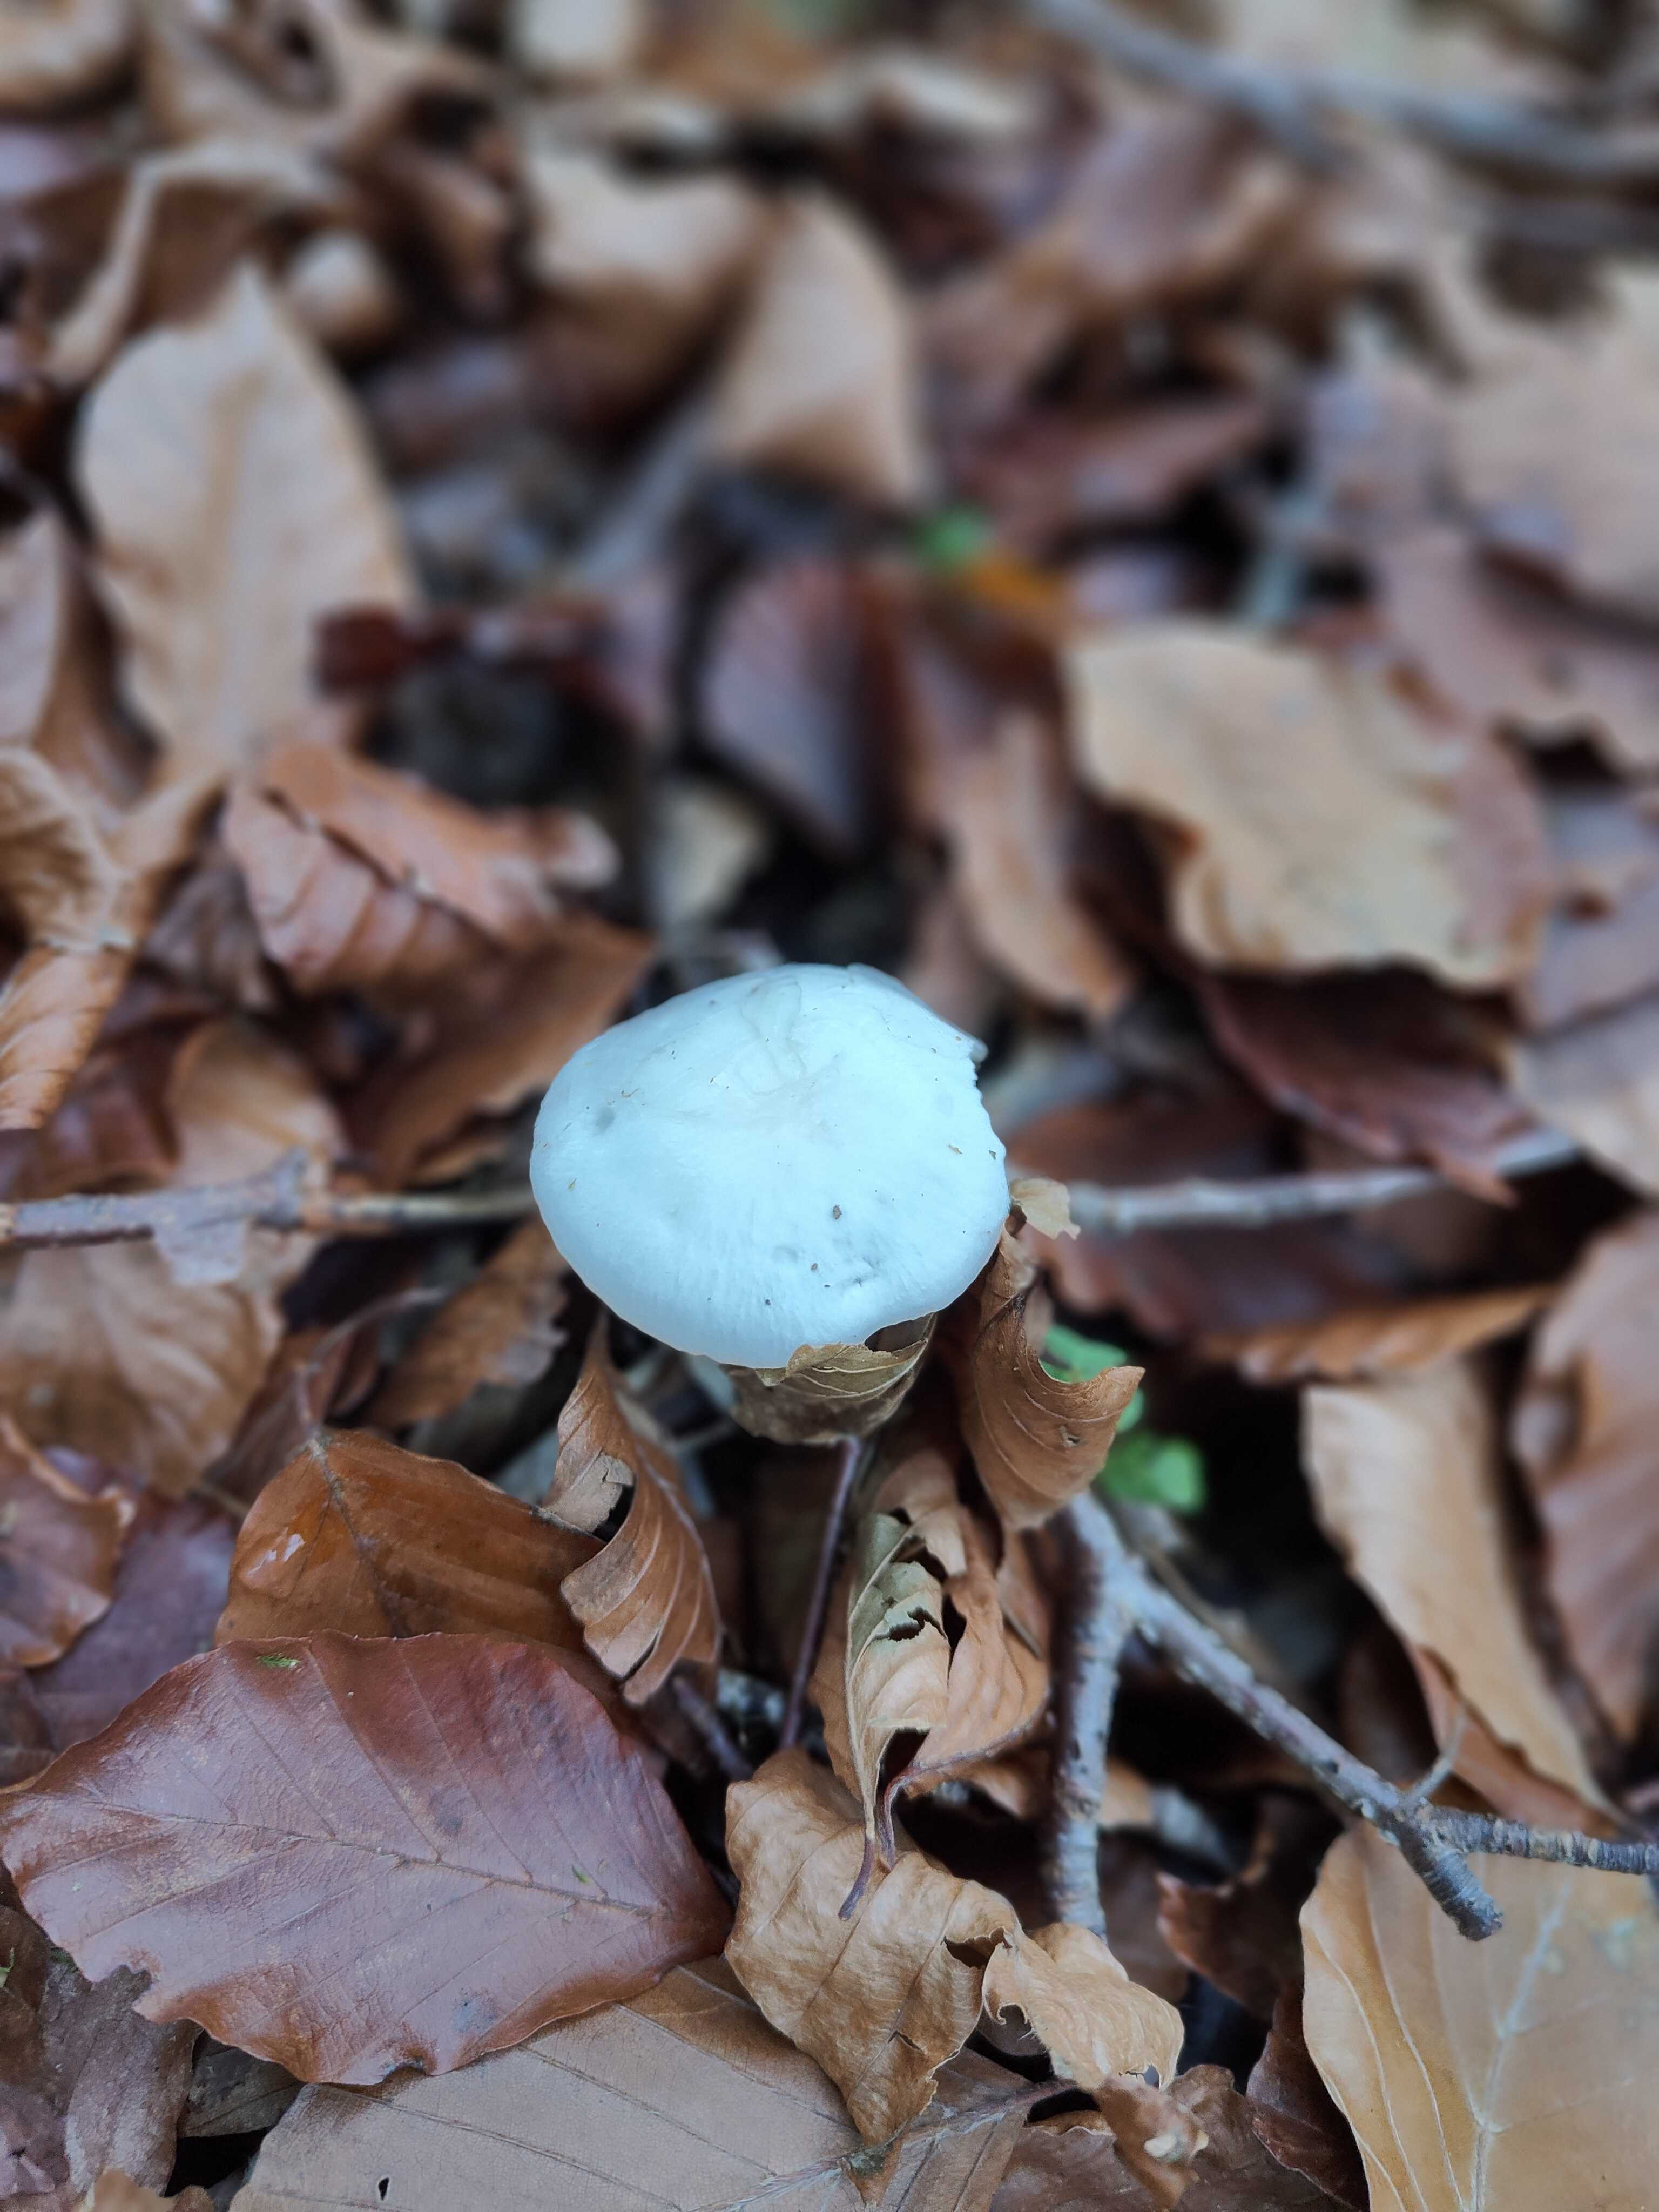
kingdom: Fungi
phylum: Basidiomycota
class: Agaricomycetes
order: Agaricales
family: Hygrophoraceae
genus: Hygrophorus
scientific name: Hygrophorus eburneus
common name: elfenbens-sneglehat
